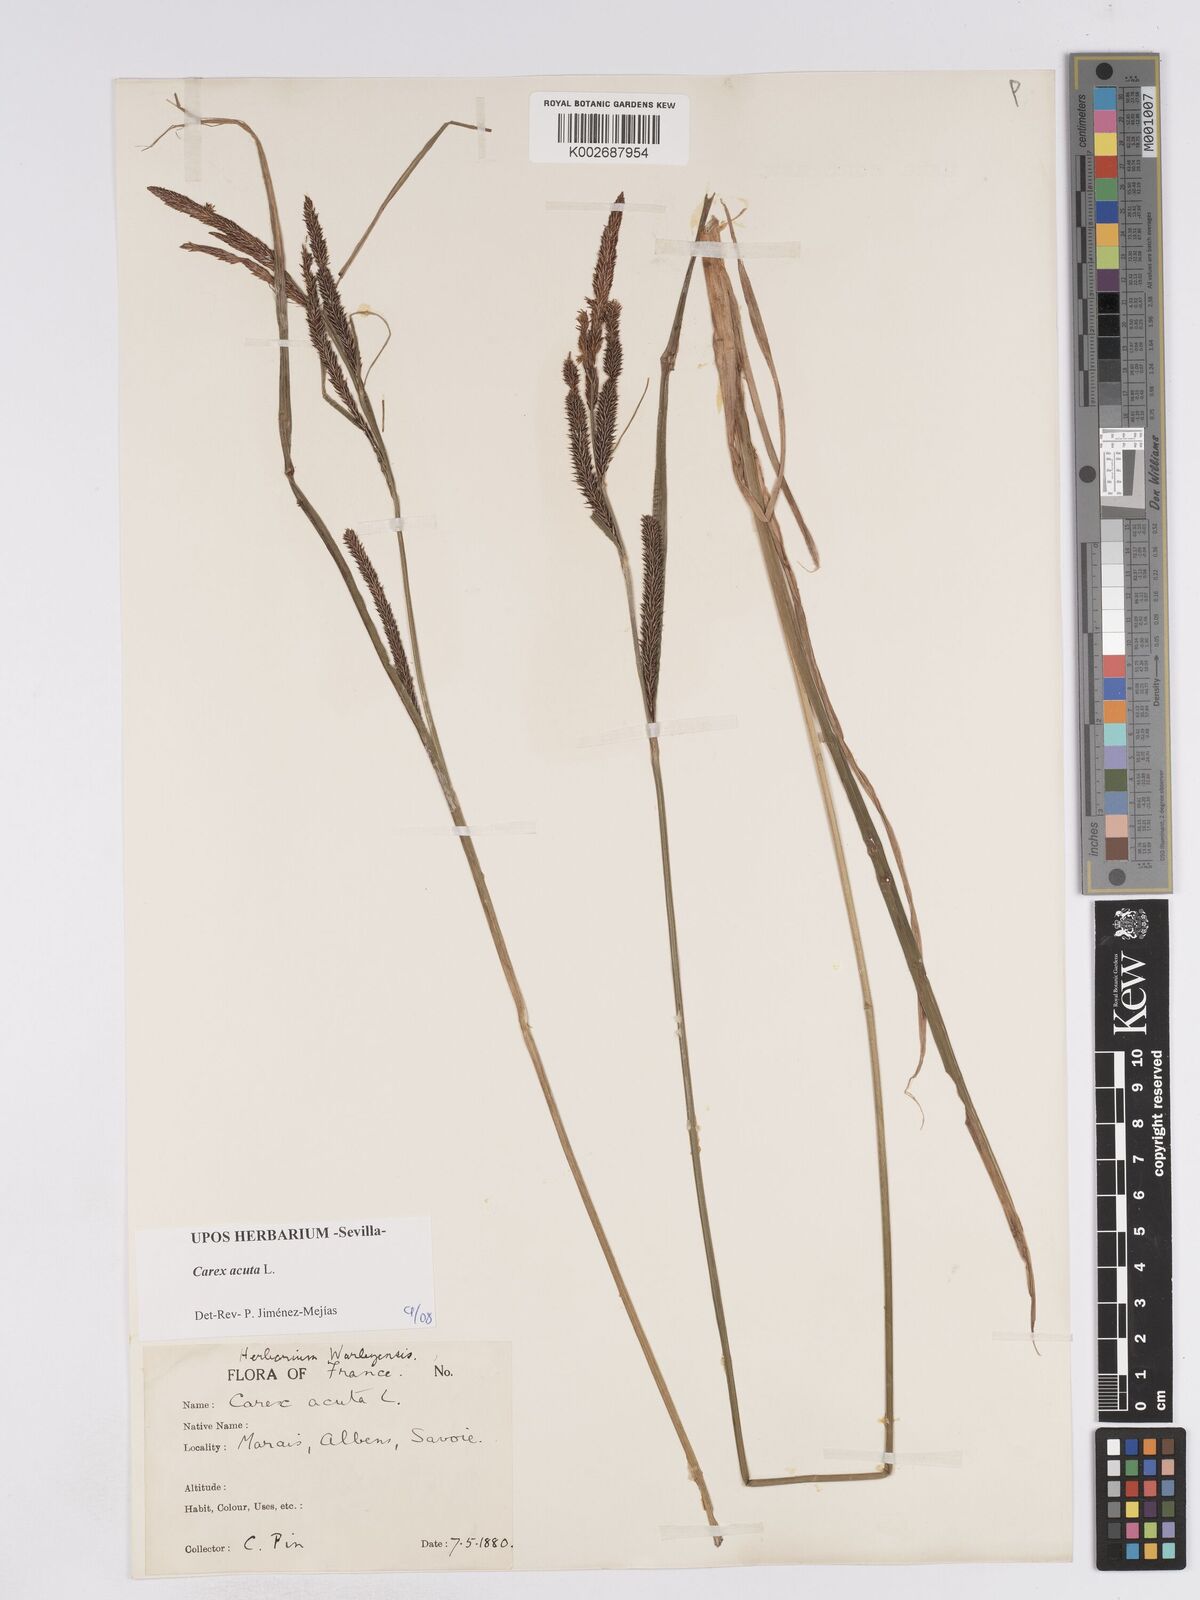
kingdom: Plantae
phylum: Tracheophyta
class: Liliopsida
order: Poales
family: Cyperaceae
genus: Carex
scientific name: Carex acuta
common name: Slender tufted-sedge
